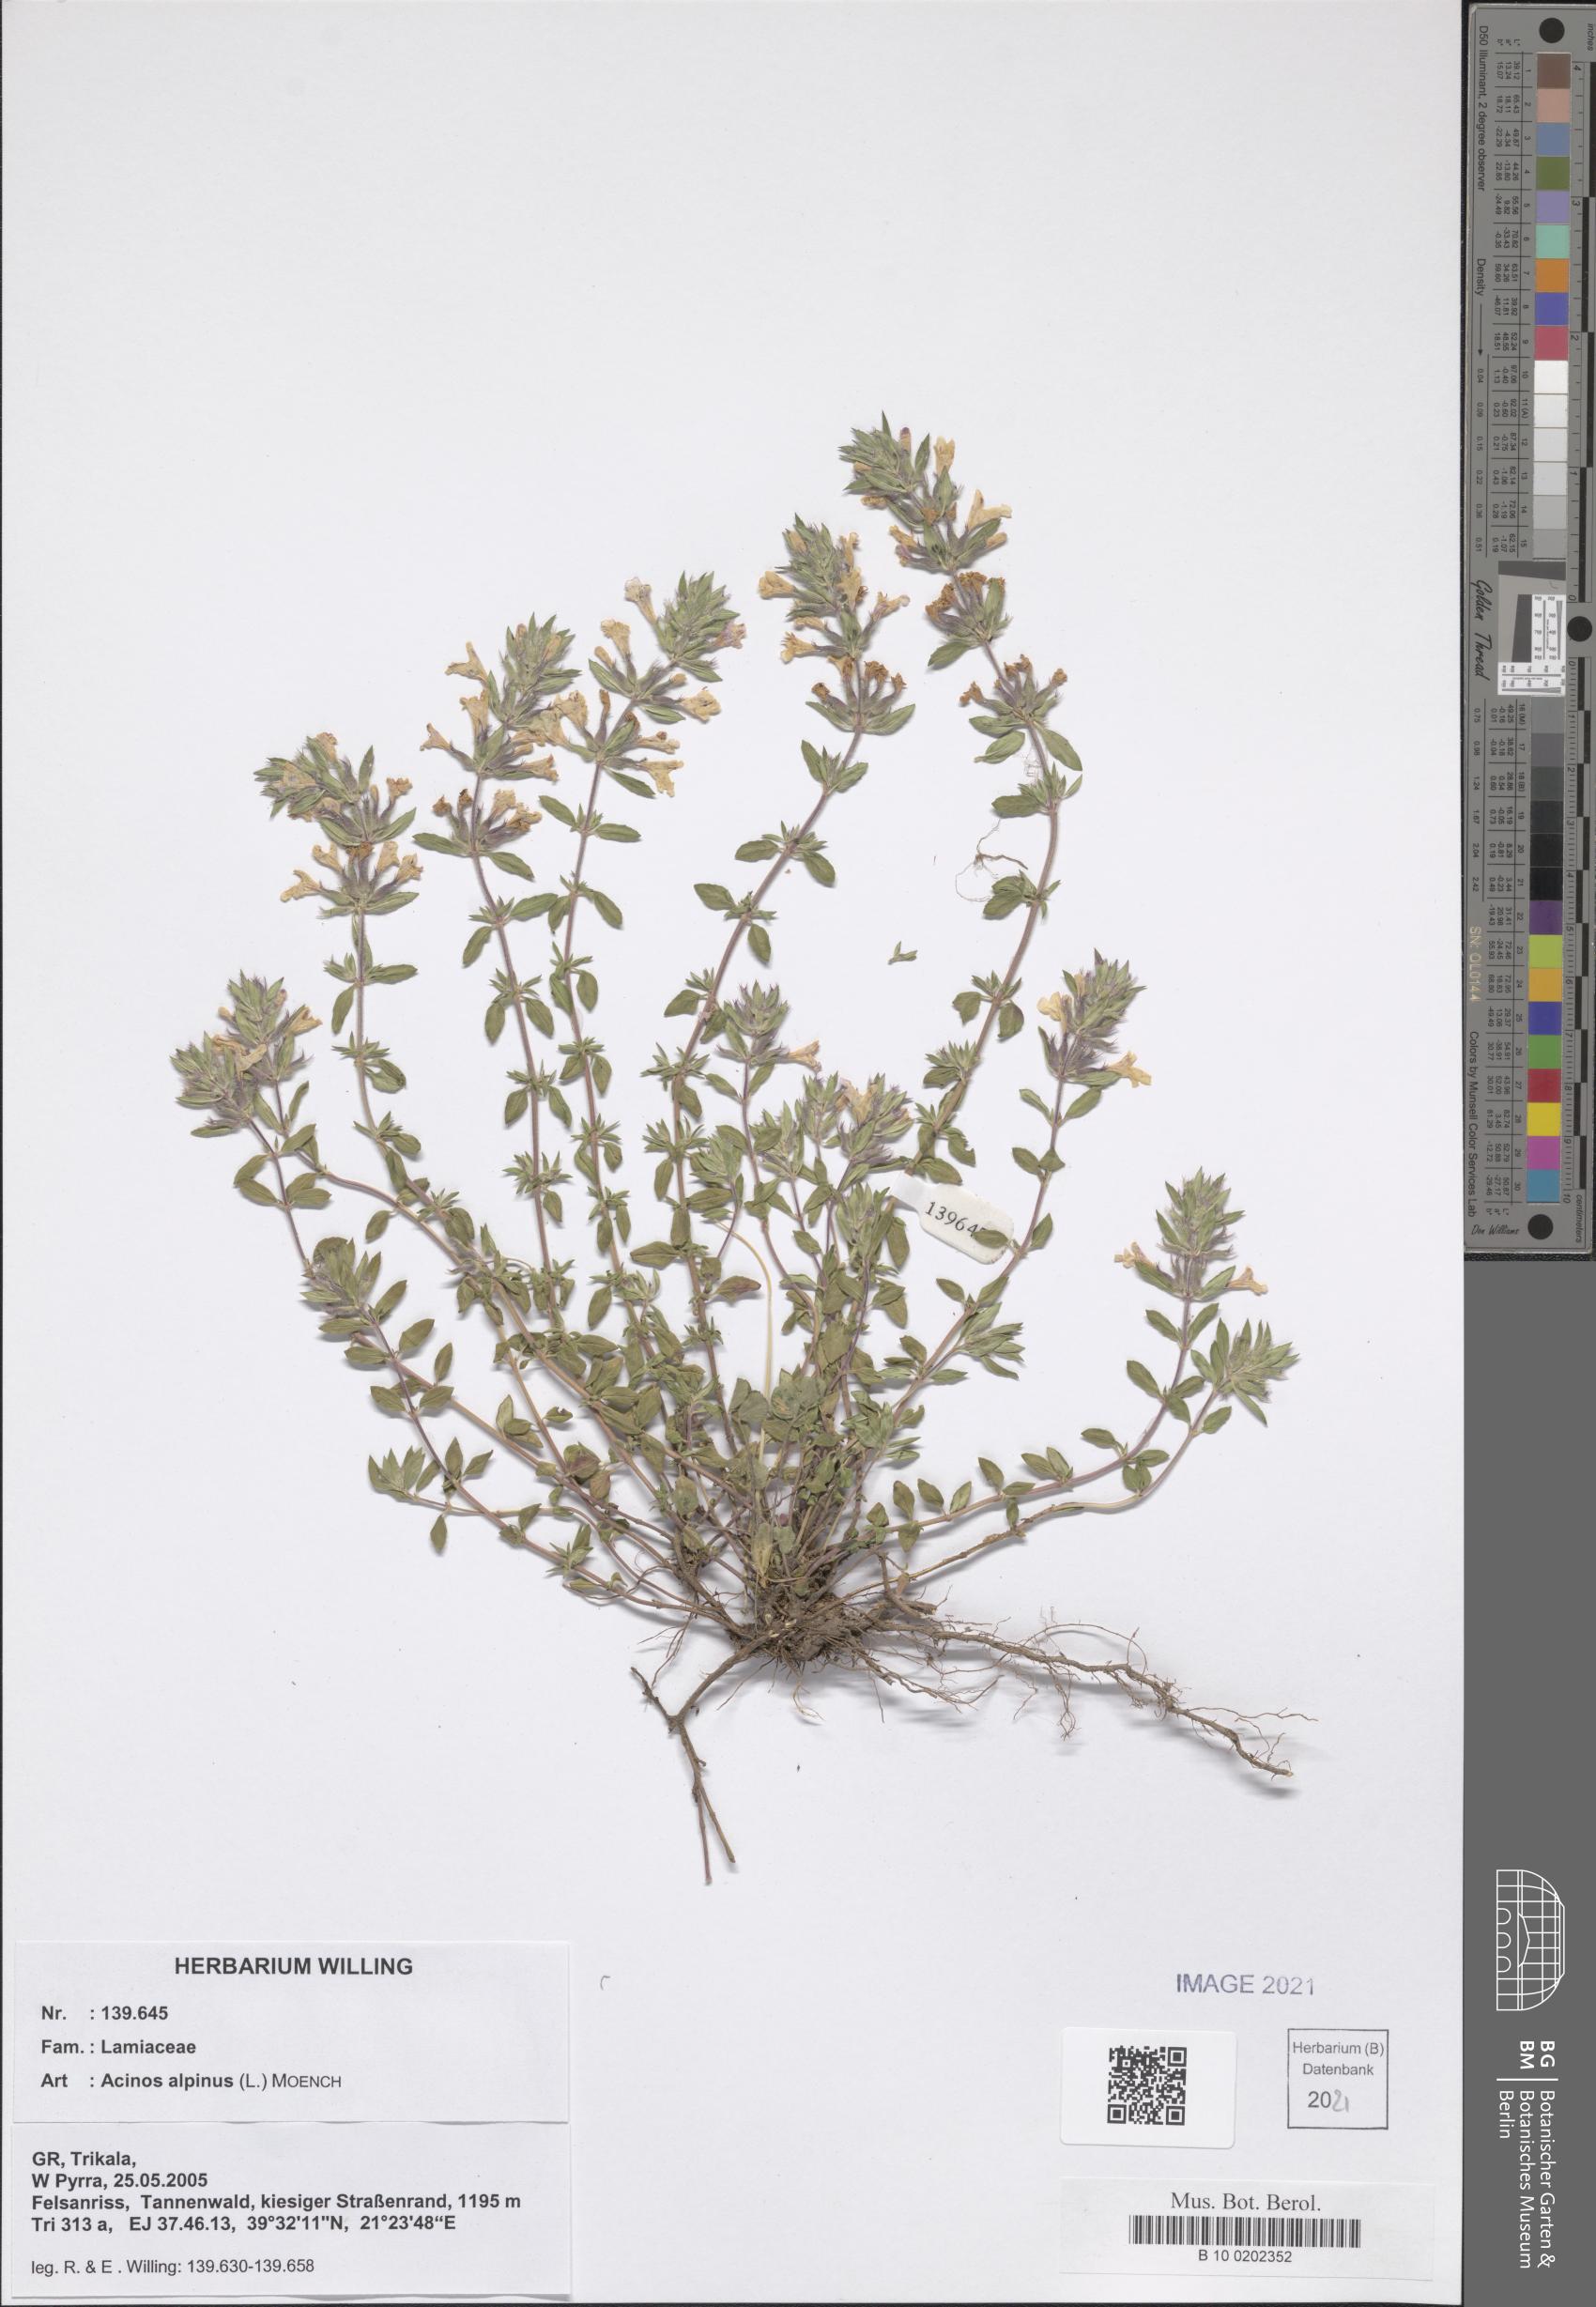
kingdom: Plantae
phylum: Tracheophyta
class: Magnoliopsida
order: Lamiales
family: Lamiaceae
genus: Clinopodium
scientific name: Clinopodium alpinum
